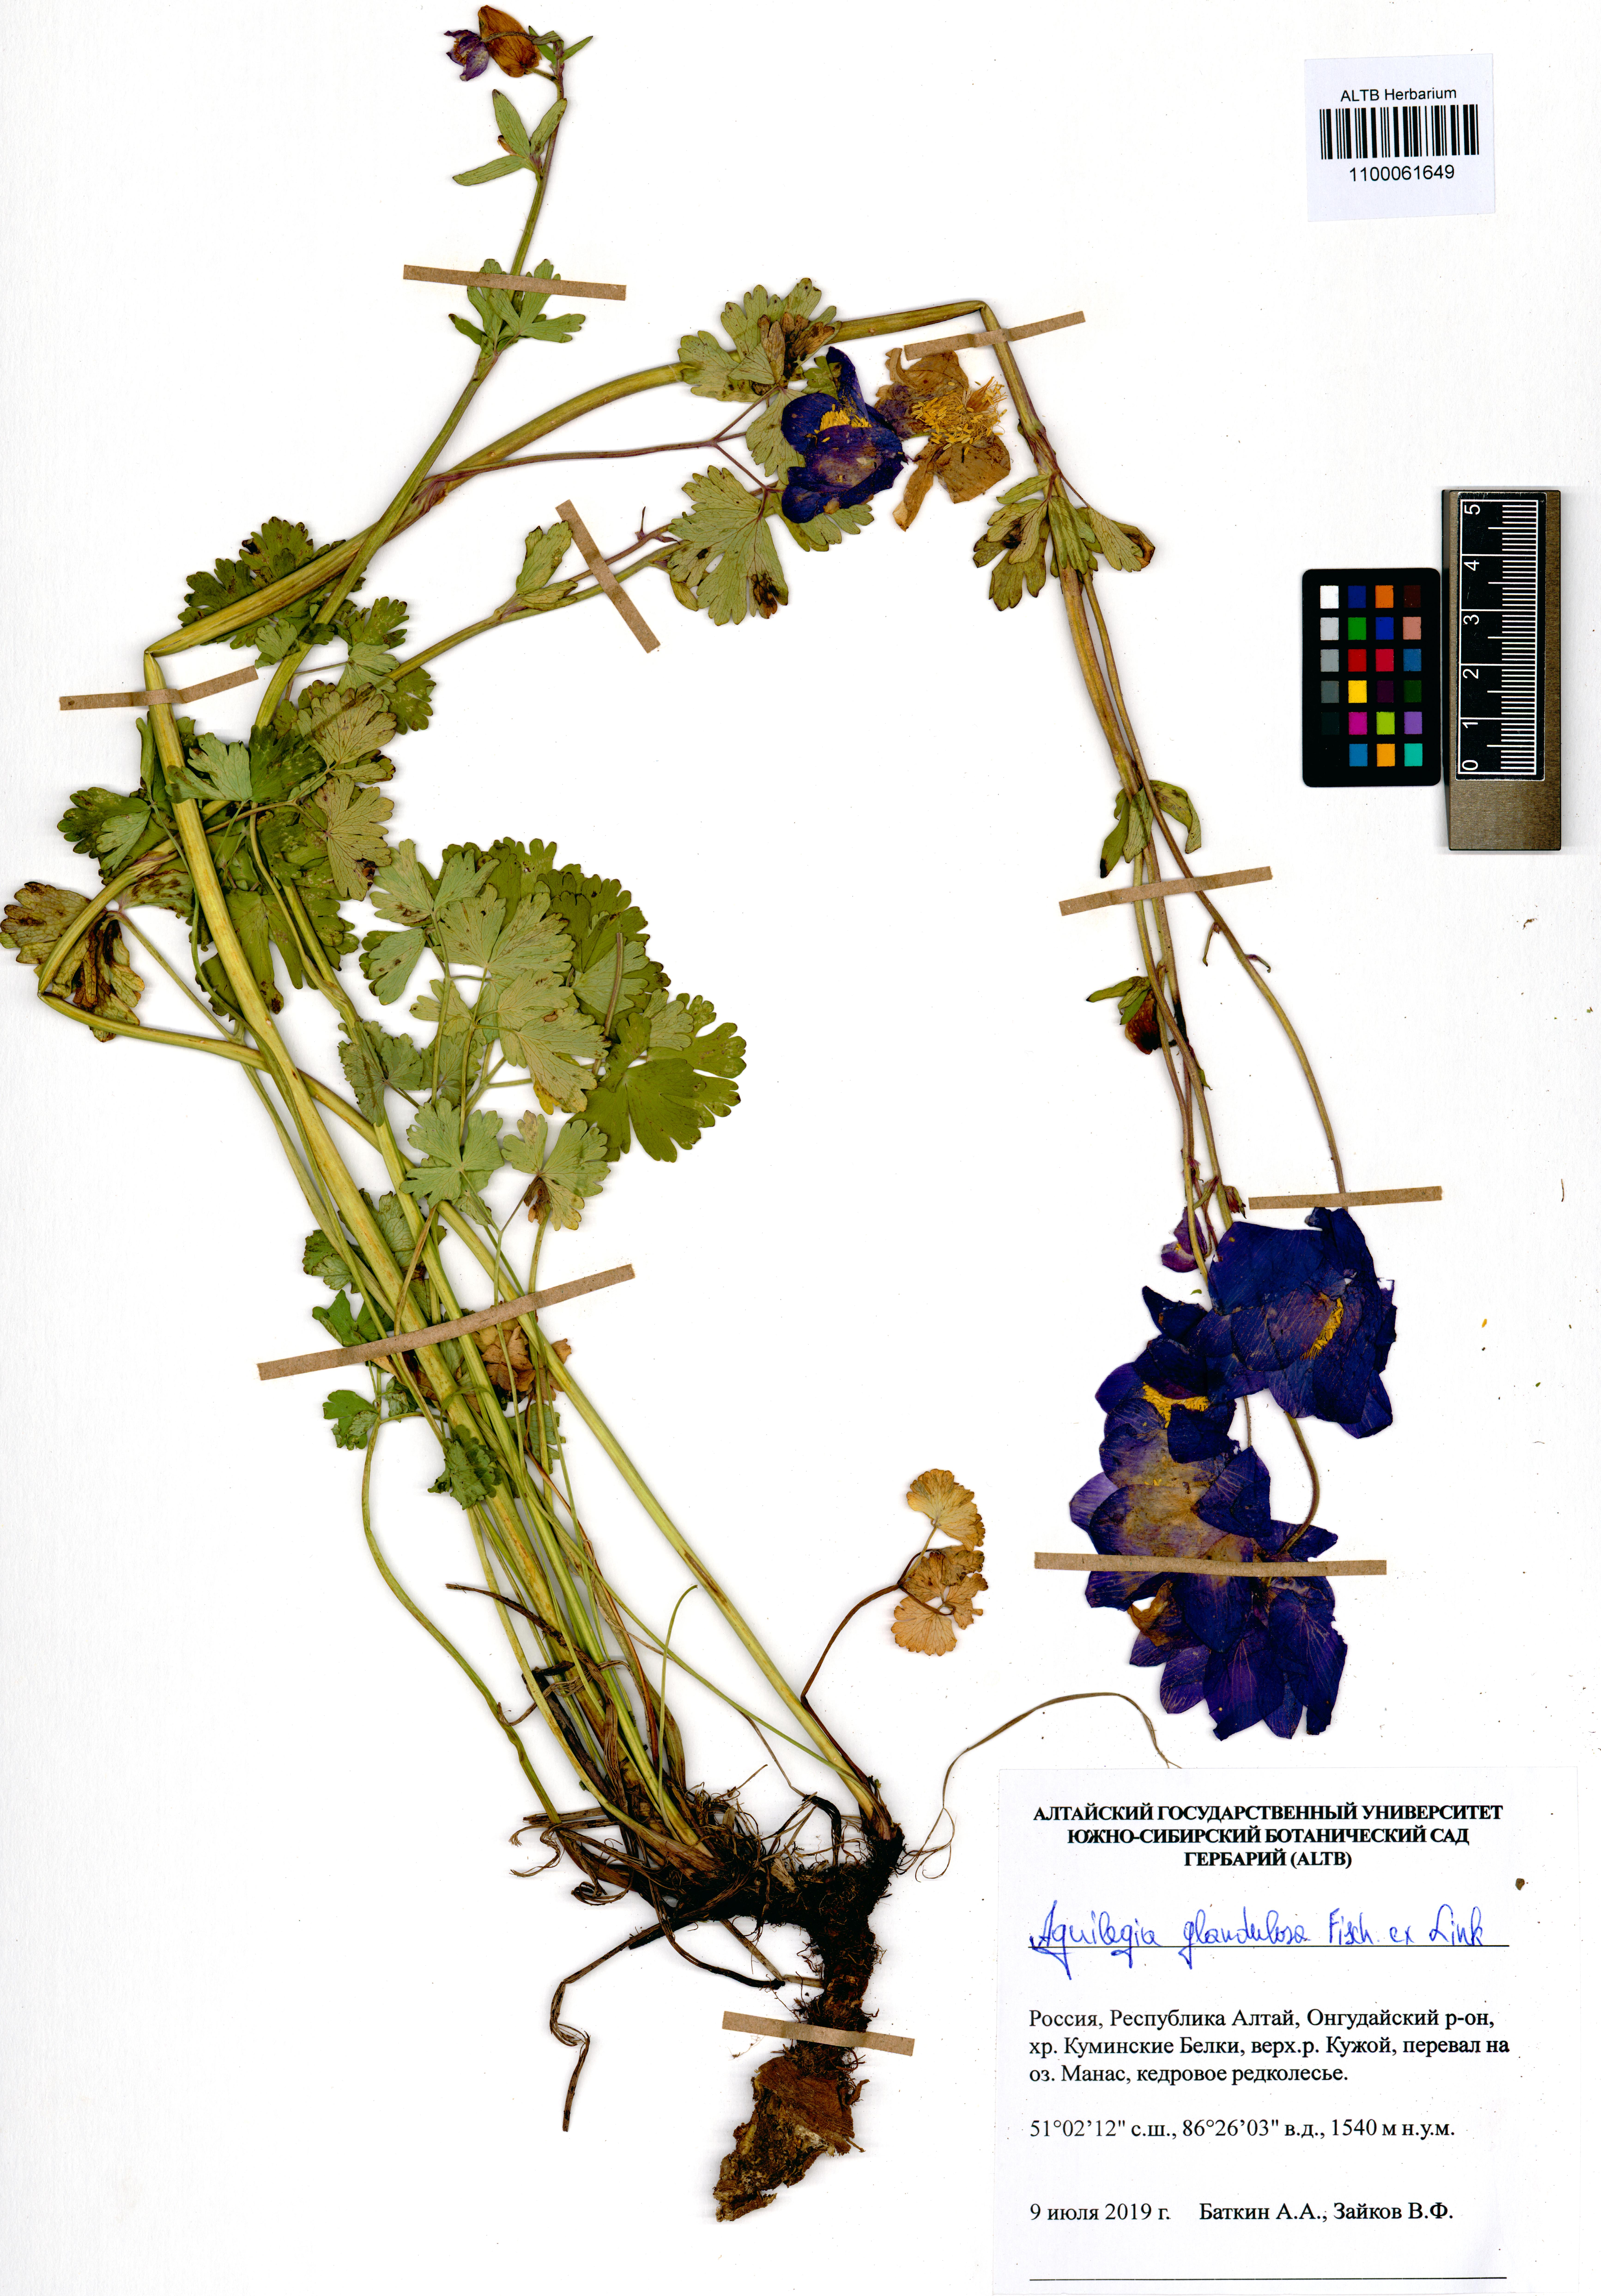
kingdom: Plantae
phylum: Tracheophyta
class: Magnoliopsida
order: Ranunculales
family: Ranunculaceae
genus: Aquilegia
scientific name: Aquilegia glandulosa
